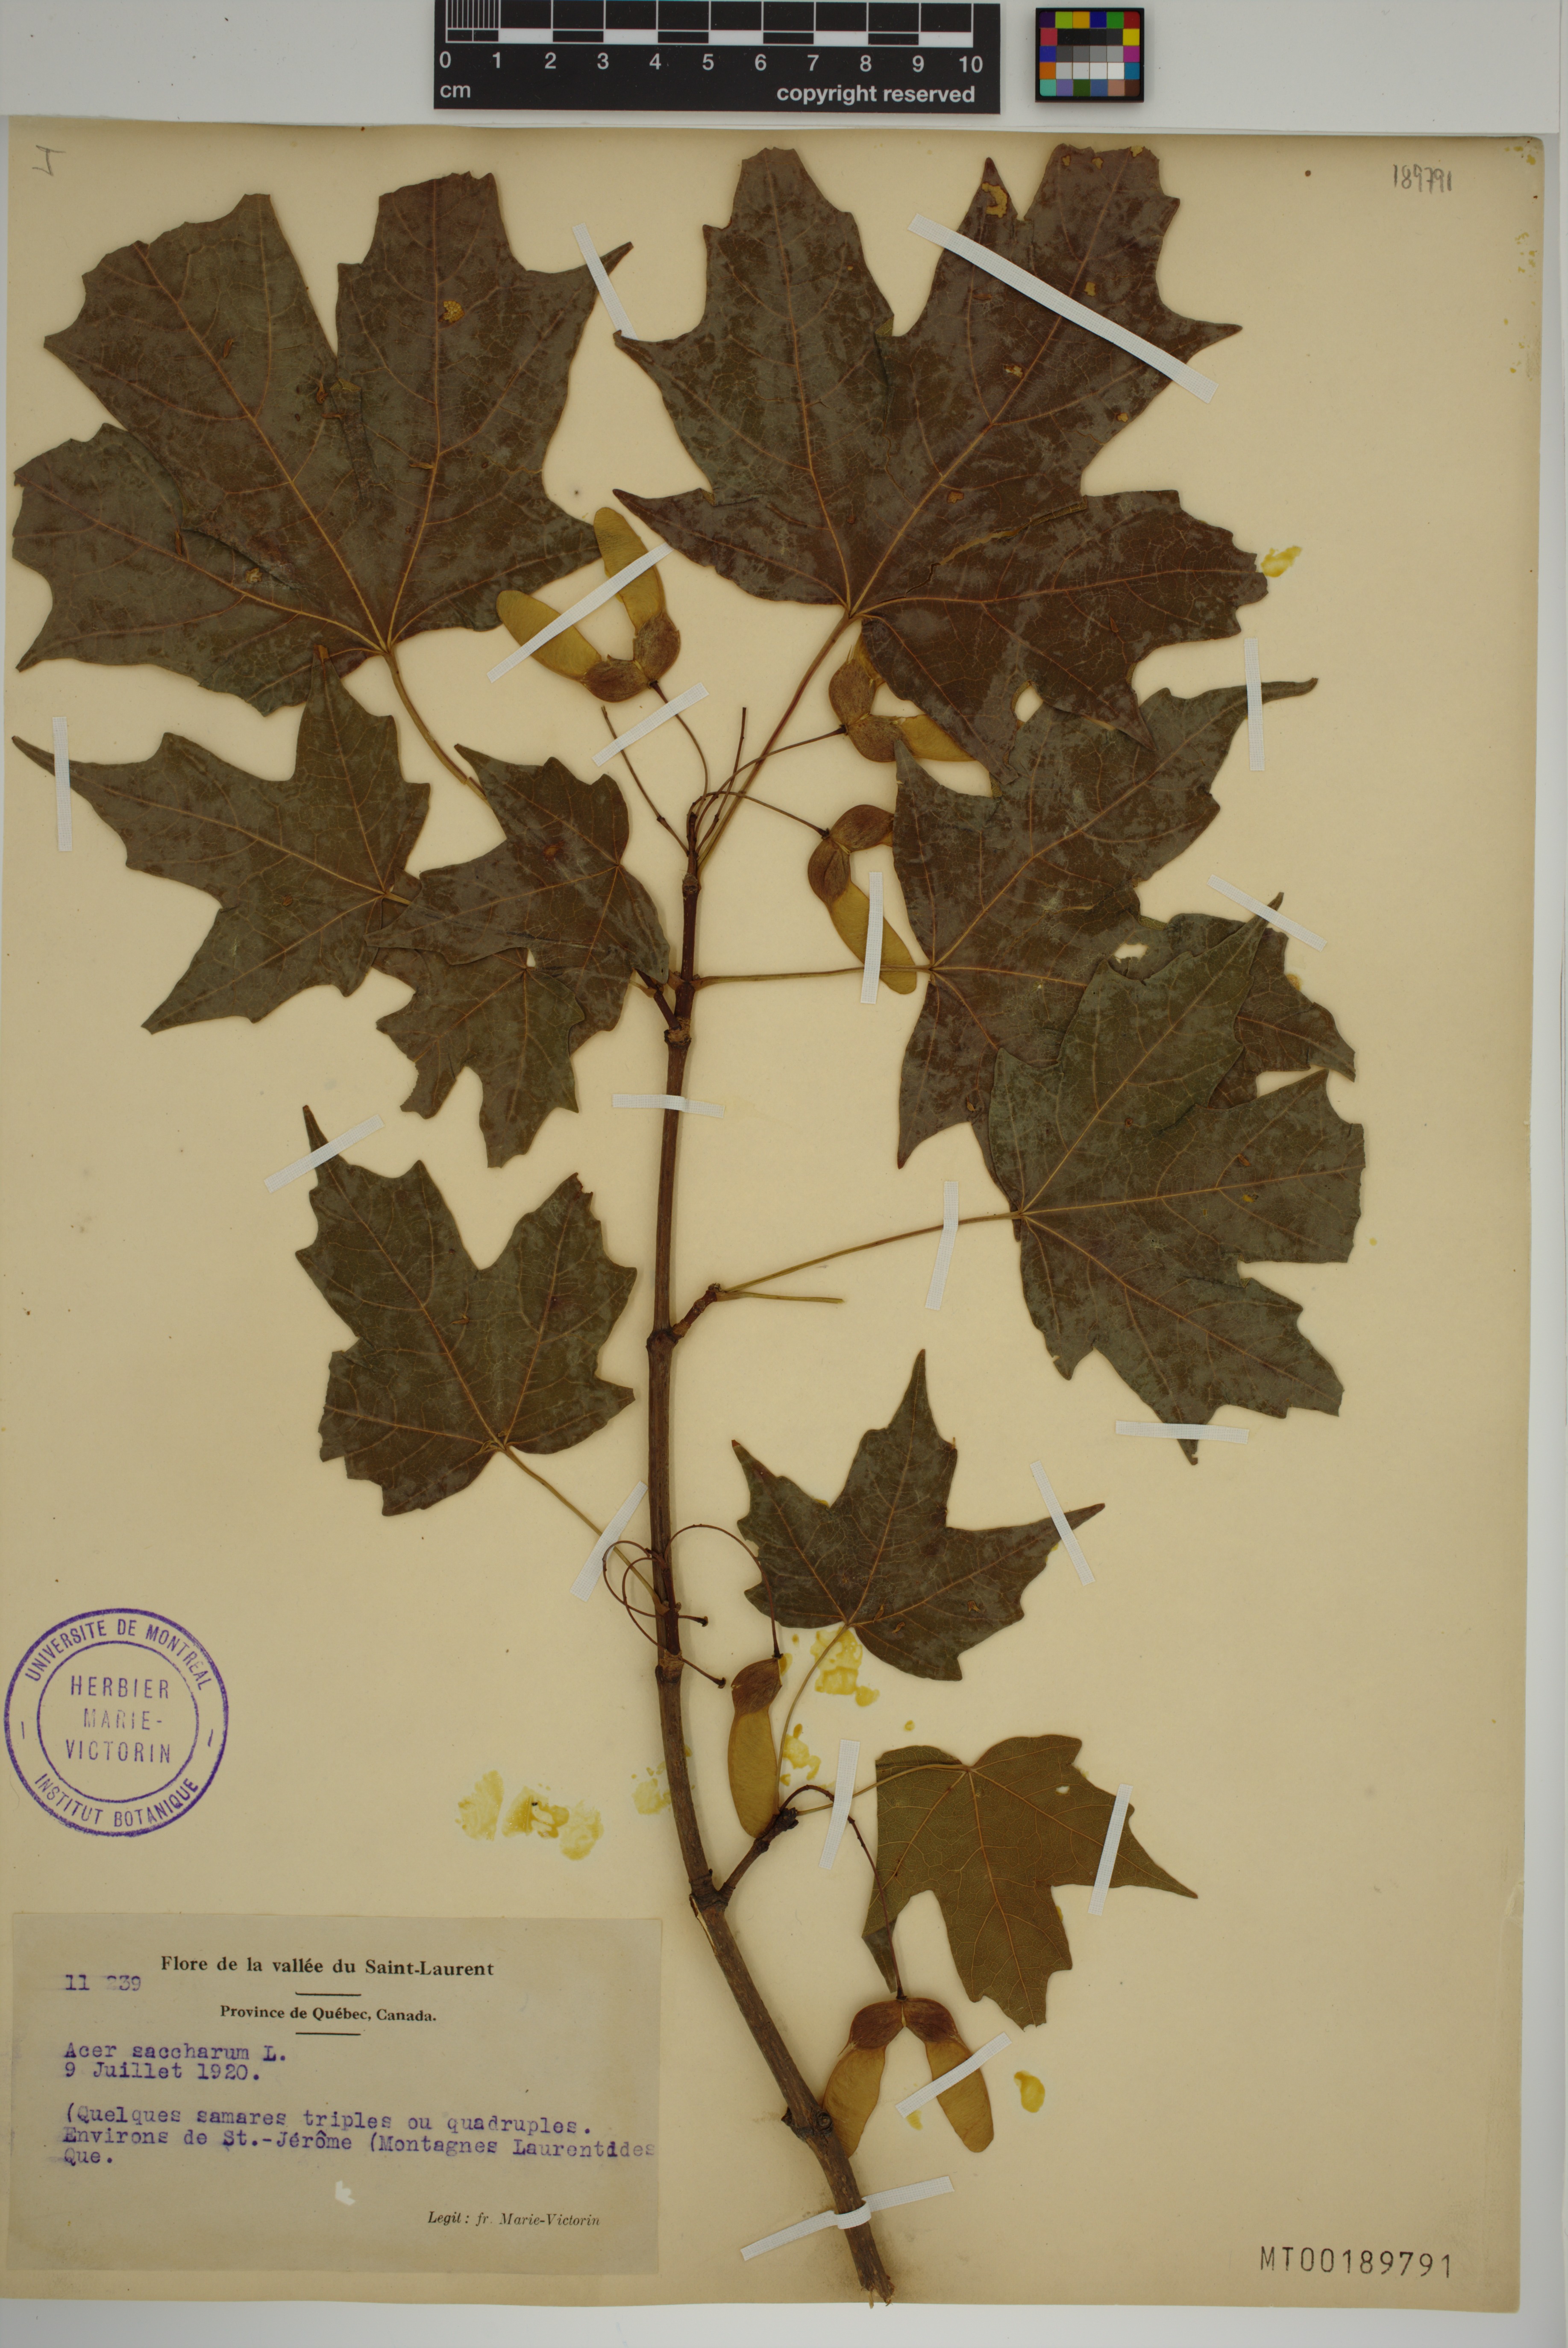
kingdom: Plantae
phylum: Tracheophyta
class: Magnoliopsida
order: Sapindales
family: Sapindaceae
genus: Acer
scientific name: Acer saccharum
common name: Sugar maple
